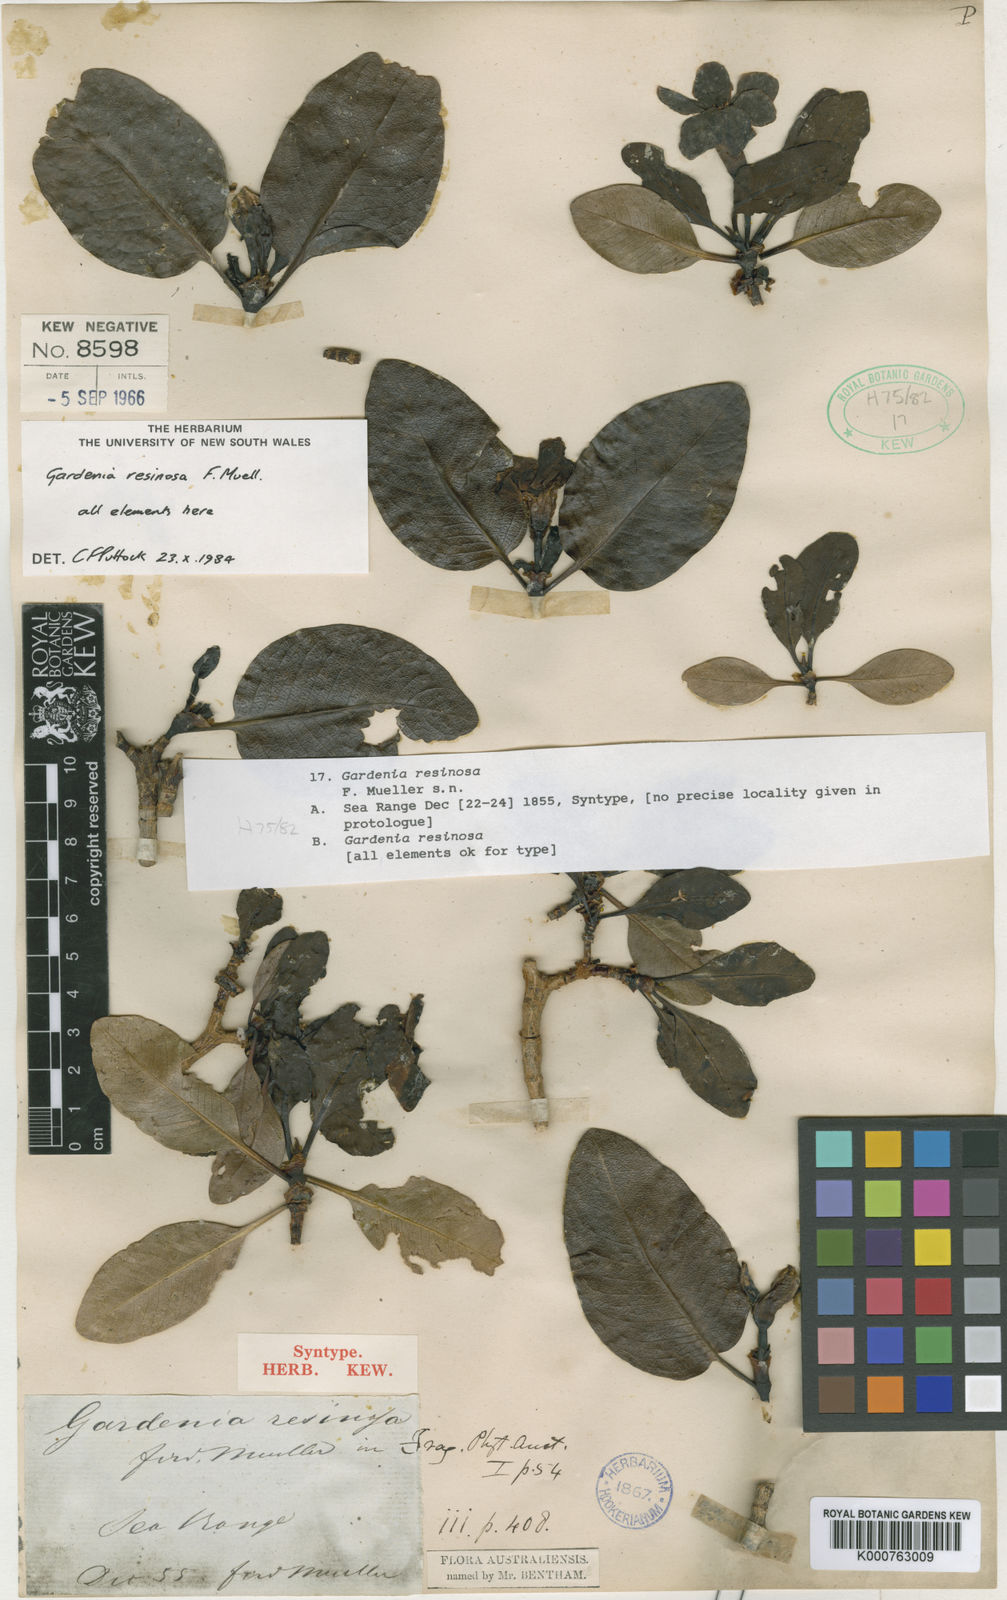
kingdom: Plantae
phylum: Tracheophyta
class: Magnoliopsida
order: Gentianales
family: Rubiaceae
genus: Gardenia
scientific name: Gardenia resinosa
